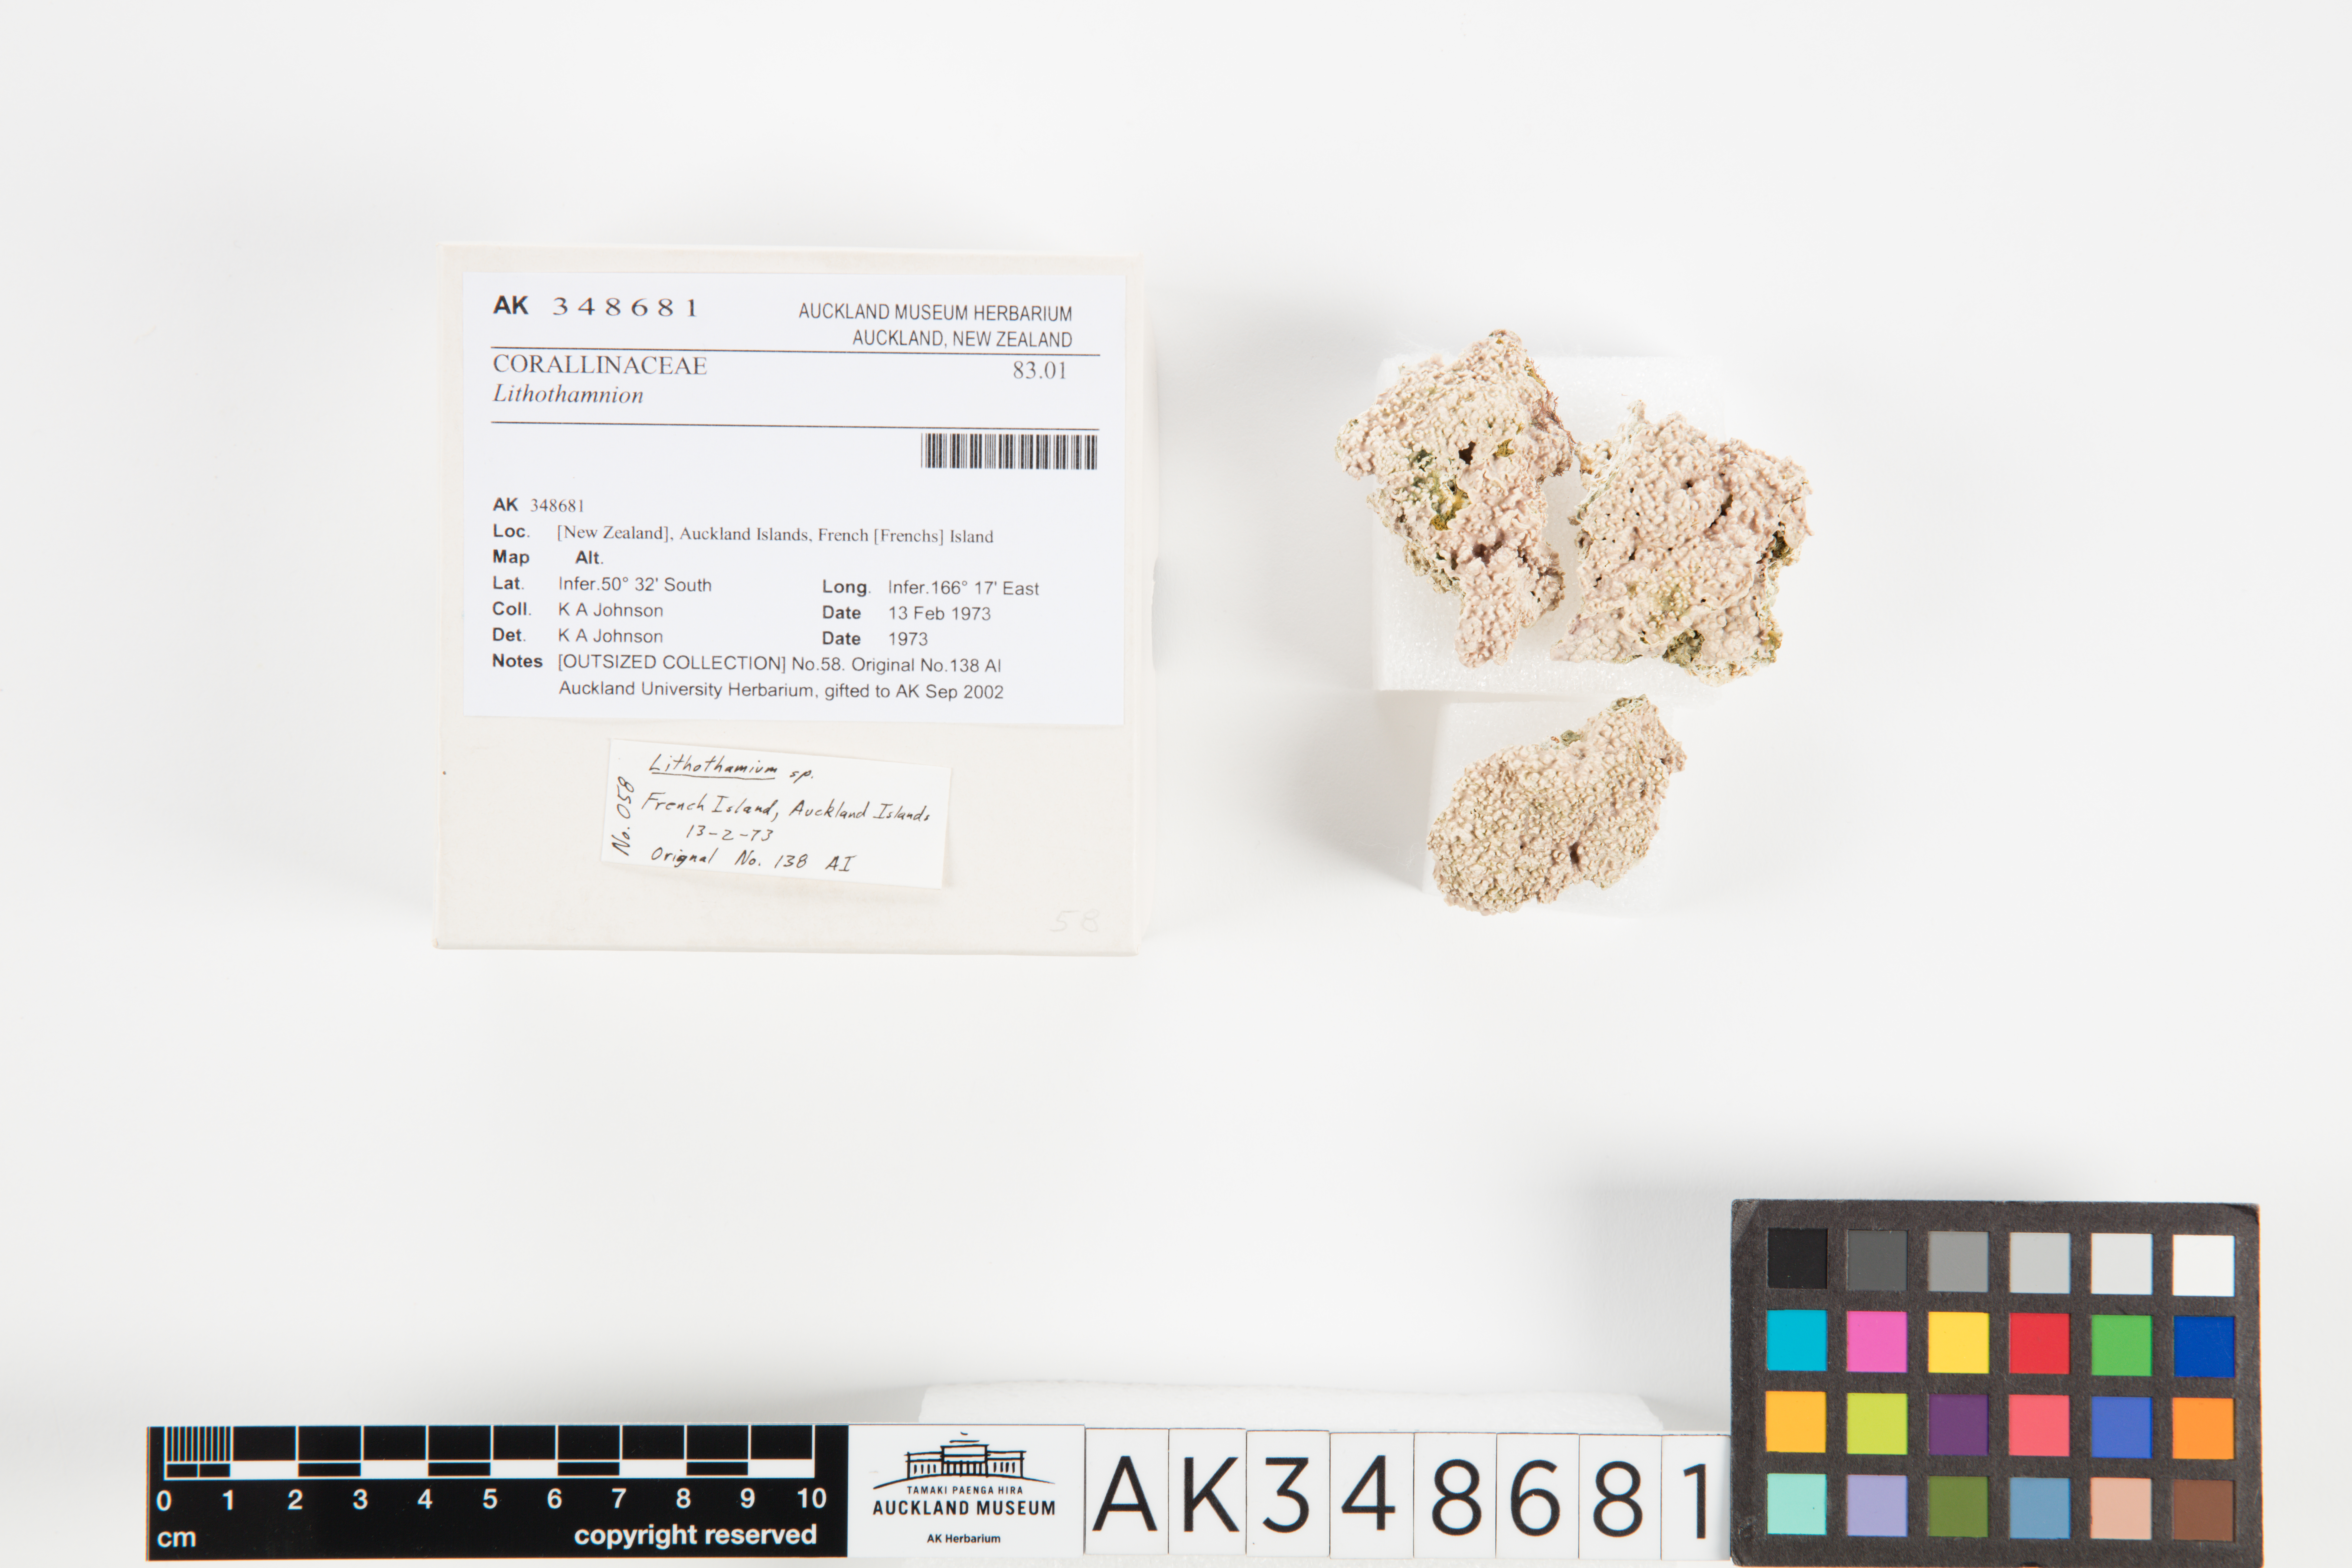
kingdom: Plantae
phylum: Rhodophyta
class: Florideophyceae
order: Corallinales
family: Hapalidiaceae
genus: Lithothamnion
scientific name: Lithothamnion
